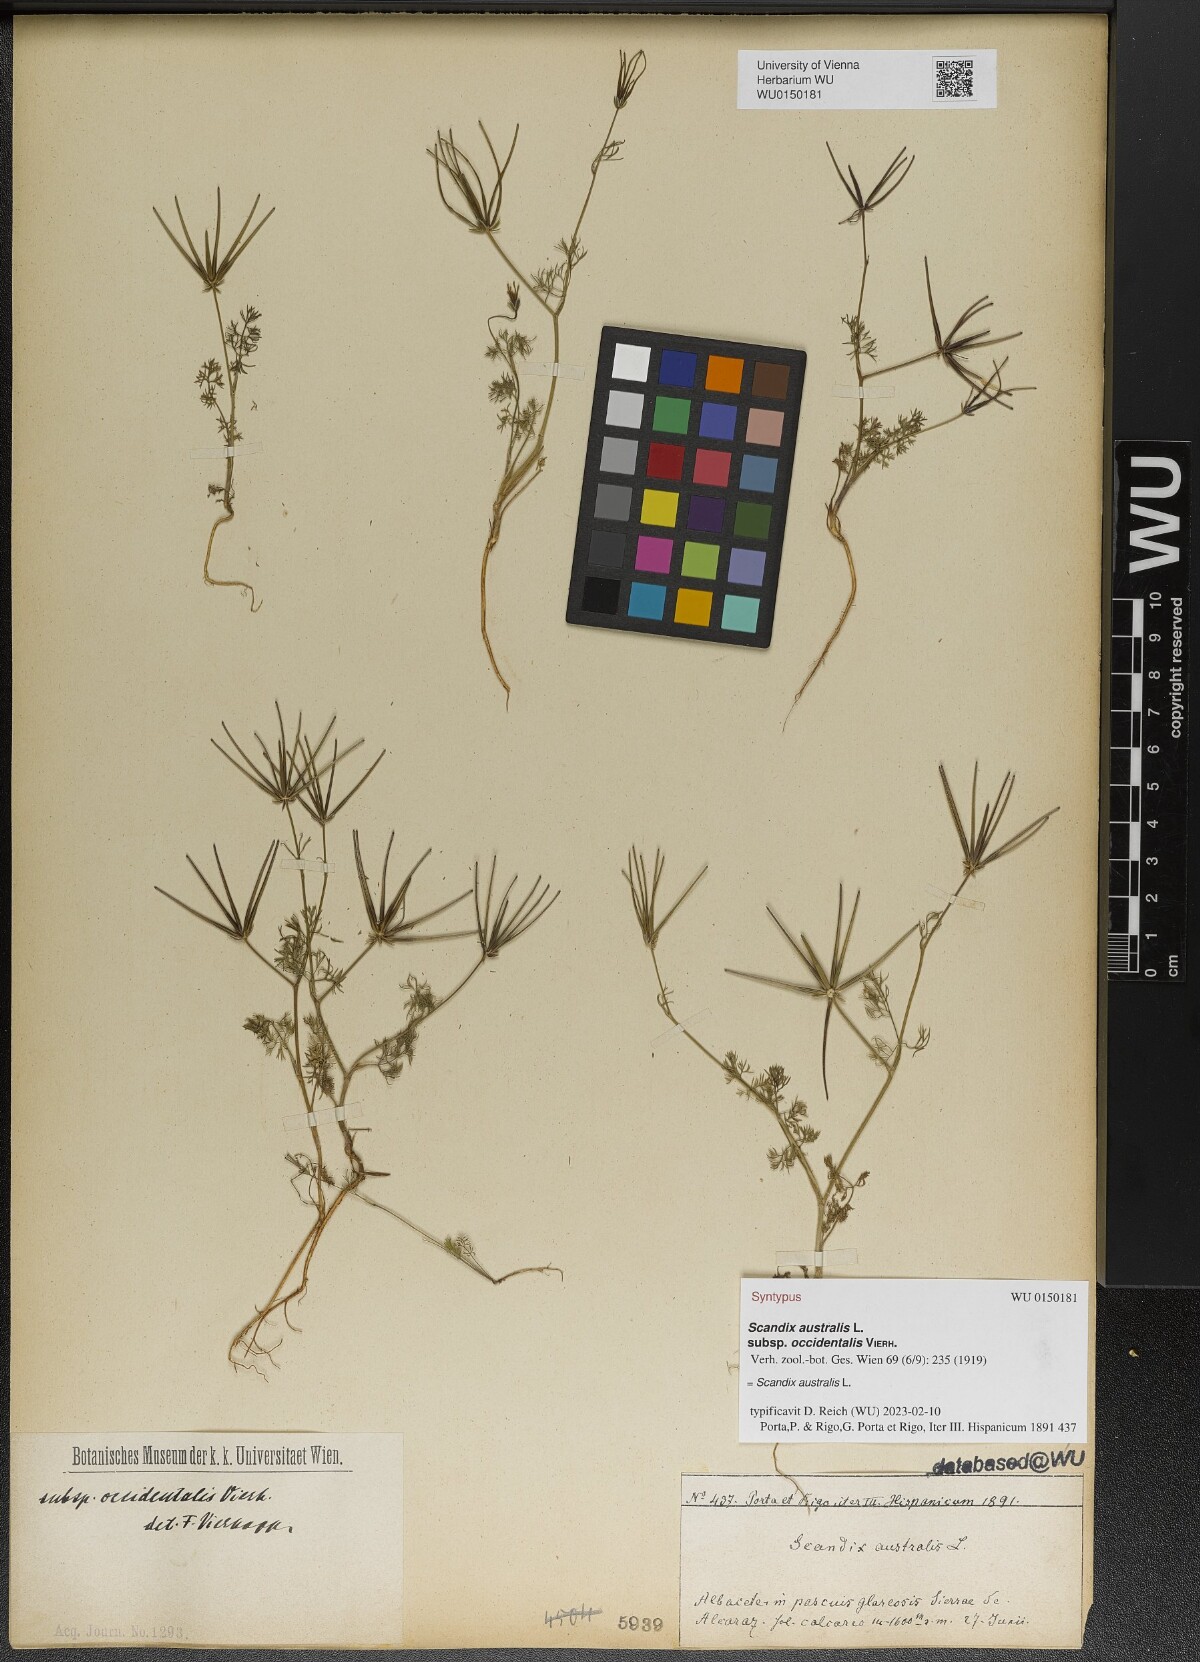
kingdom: Plantae
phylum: Tracheophyta
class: Magnoliopsida
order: Apiales
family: Apiaceae
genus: Scandix
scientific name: Scandix australis
